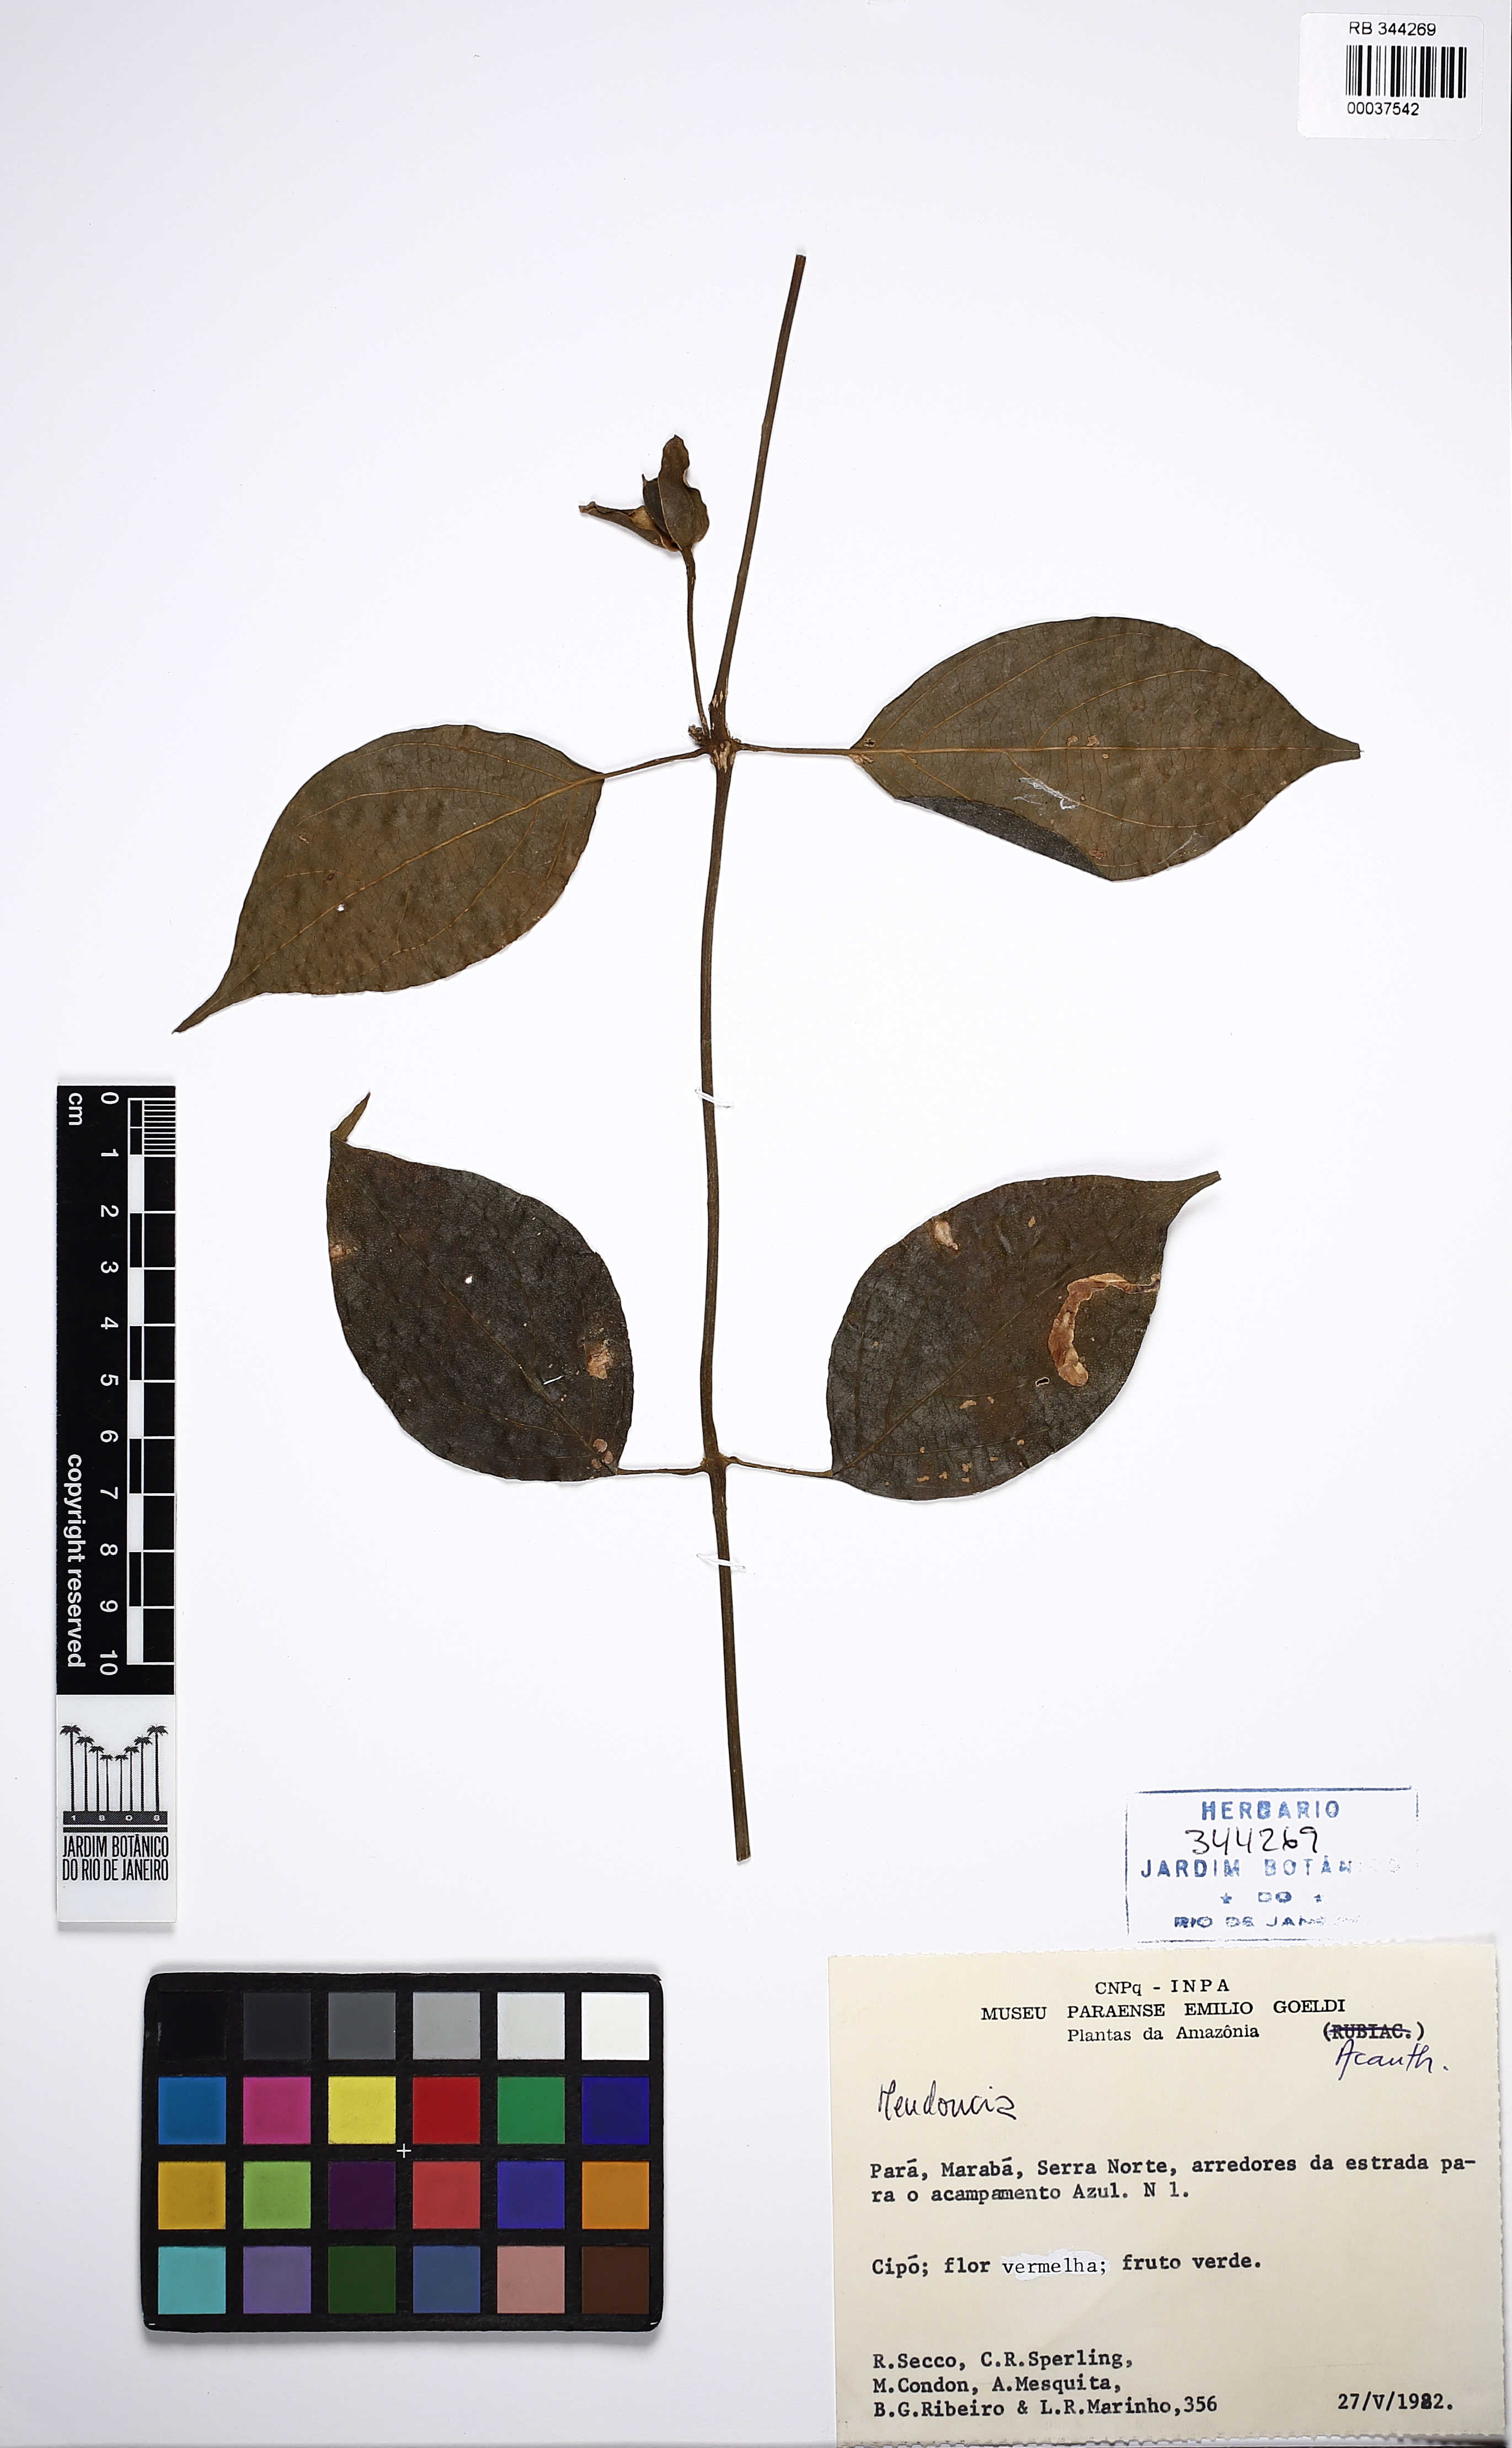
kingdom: Plantae
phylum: Tracheophyta
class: Magnoliopsida
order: Lamiales
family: Acanthaceae
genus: Mendoncia
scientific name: Mendoncia aspera
